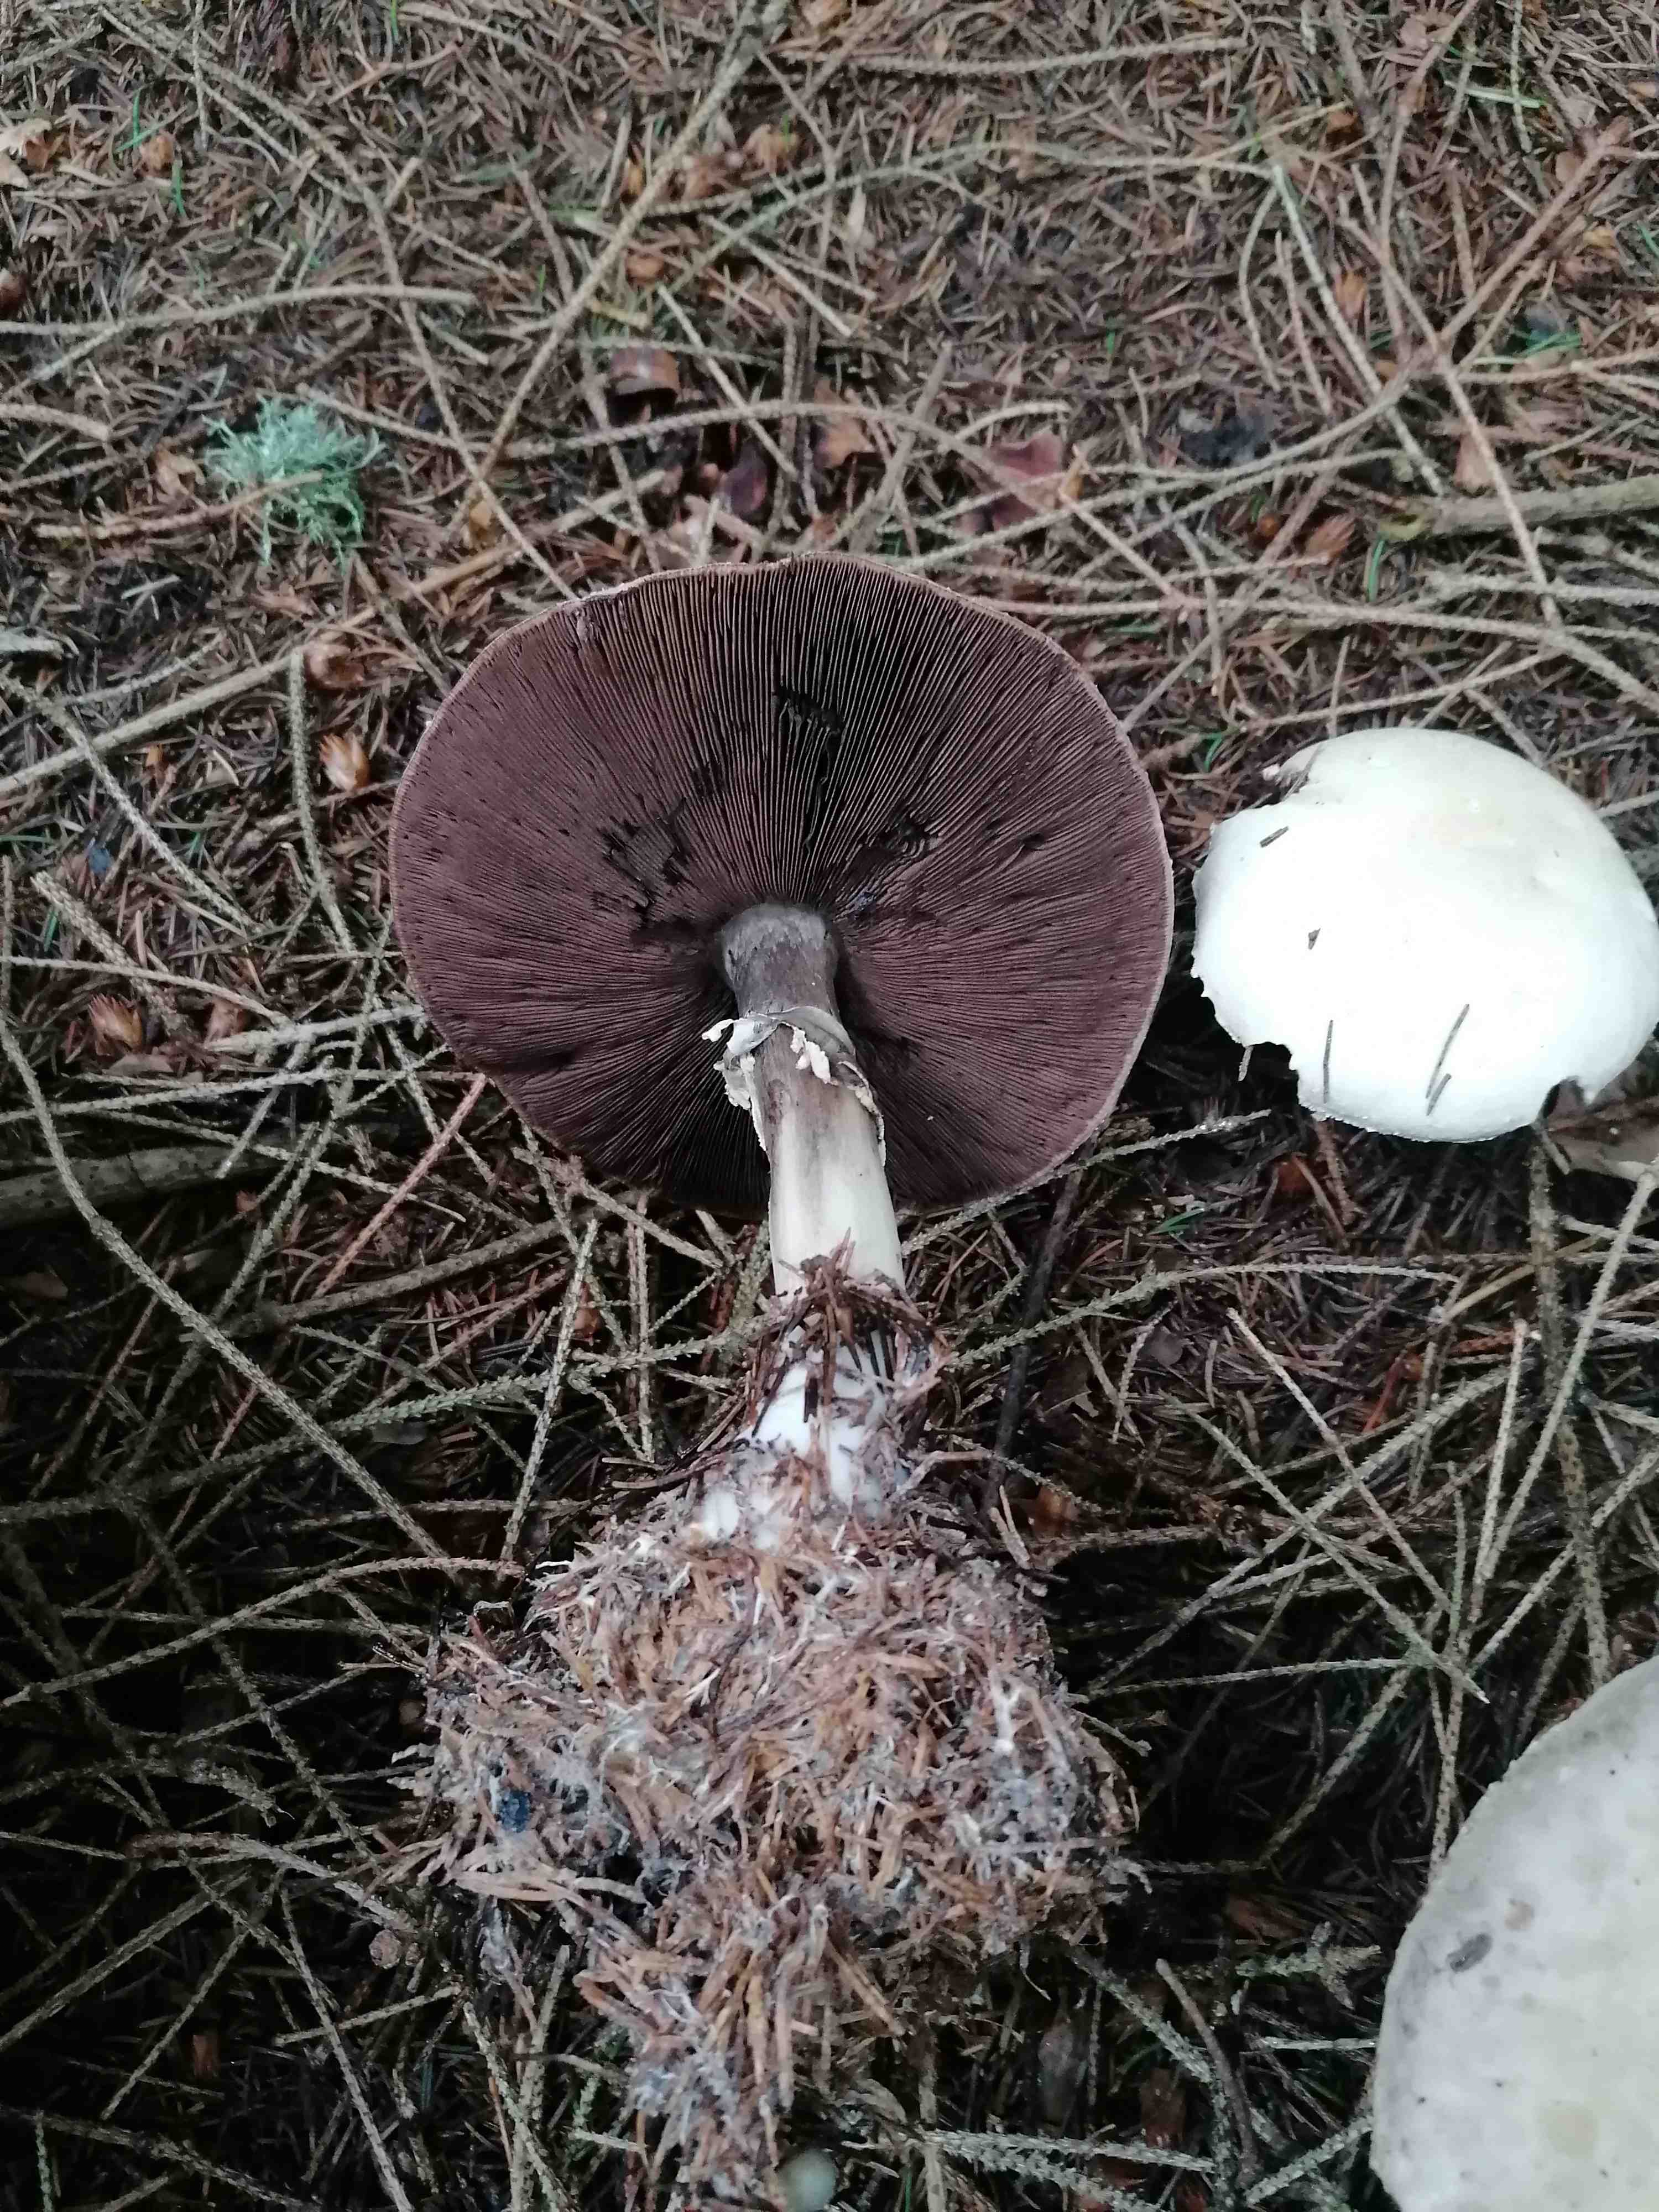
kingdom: Fungi
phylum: Basidiomycota
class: Agaricomycetes
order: Agaricales
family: Agaricaceae
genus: Agaricus
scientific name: Agaricus sylvicola
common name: gulhvid champignon
